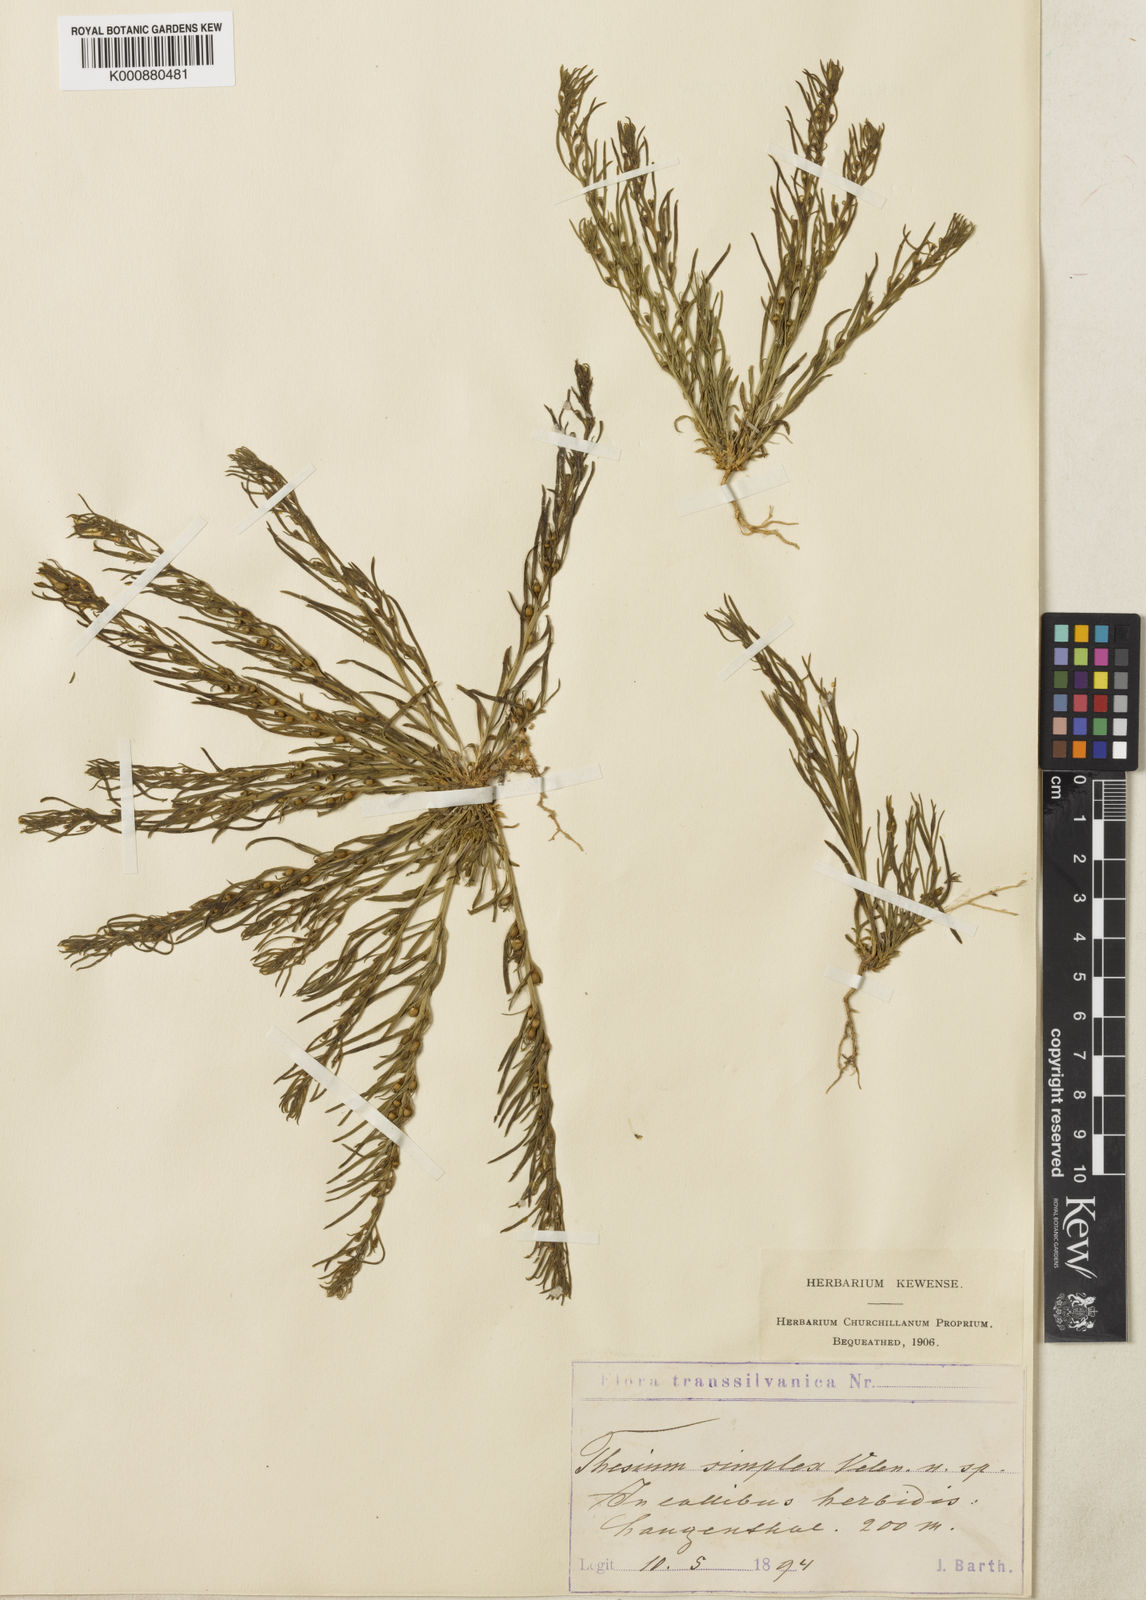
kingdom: Plantae
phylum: Tracheophyta
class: Magnoliopsida
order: Santalales
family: Thesiaceae
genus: Thesium
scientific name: Thesium dollineri
